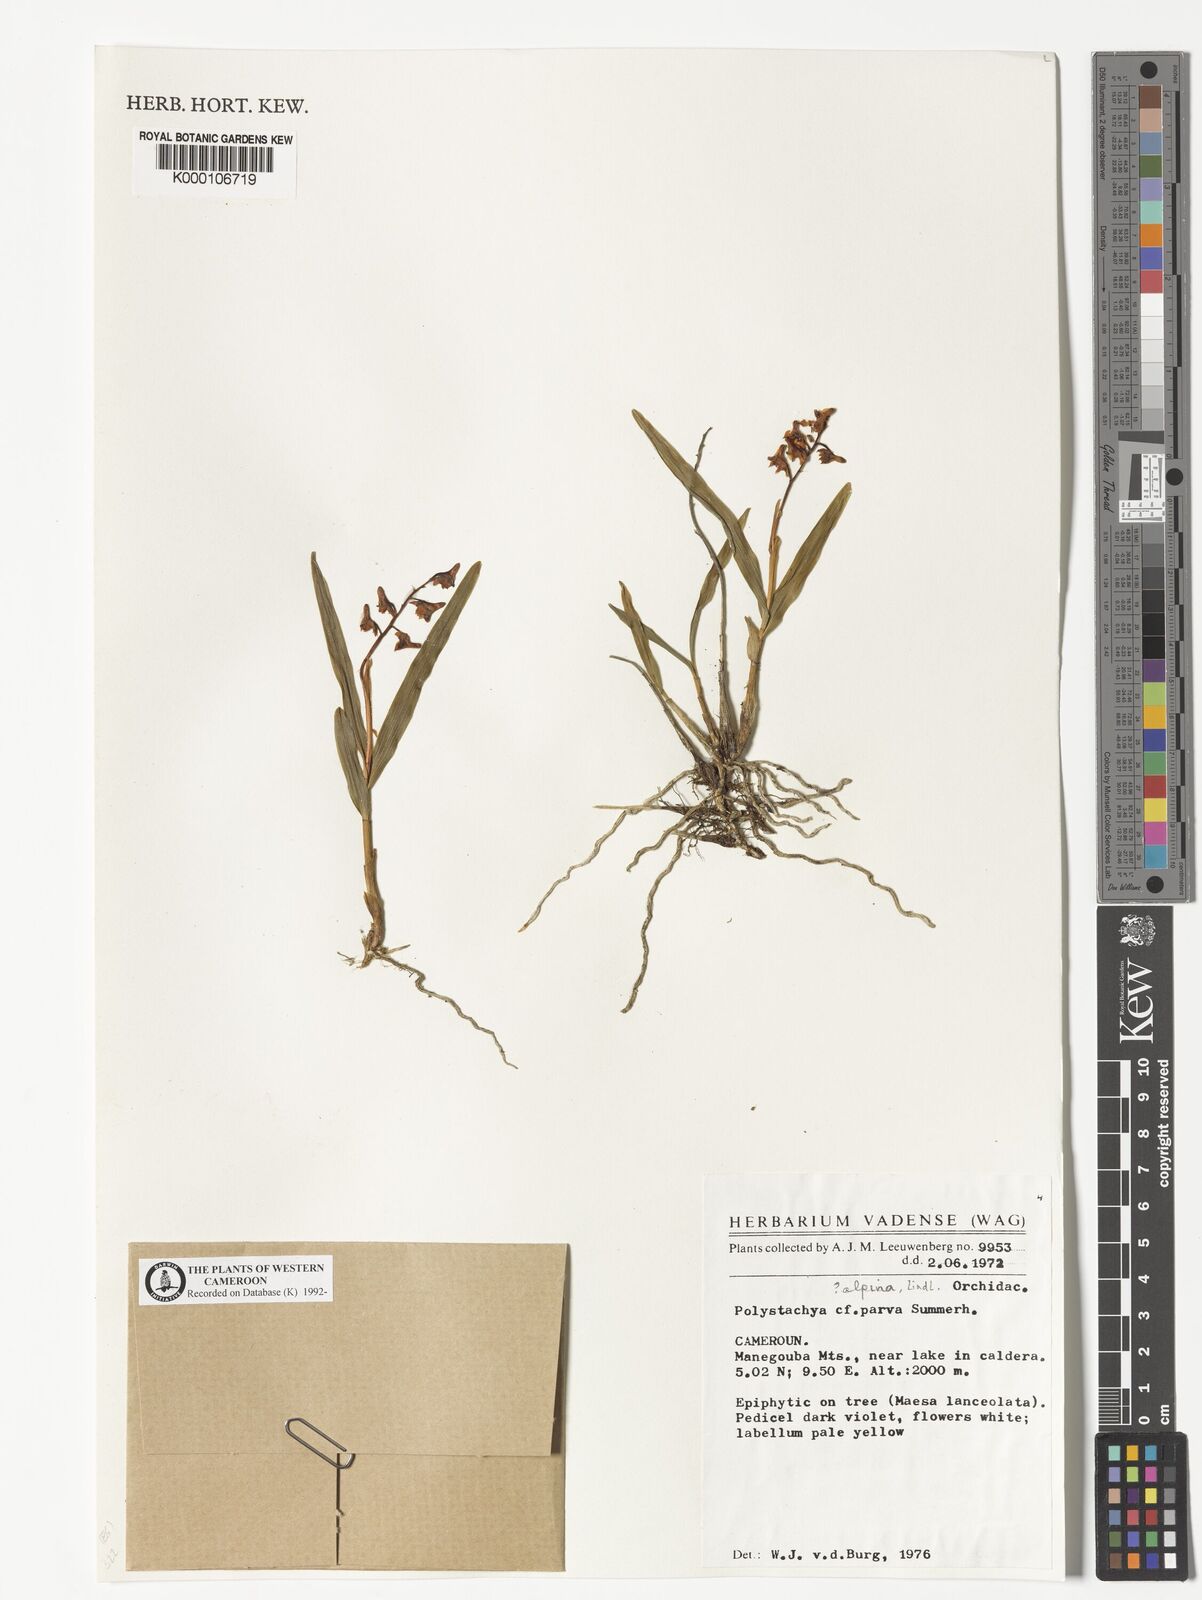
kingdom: Plantae
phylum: Tracheophyta
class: Liliopsida
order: Asparagales
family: Orchidaceae
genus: Polystachya
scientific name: Polystachya alpina
